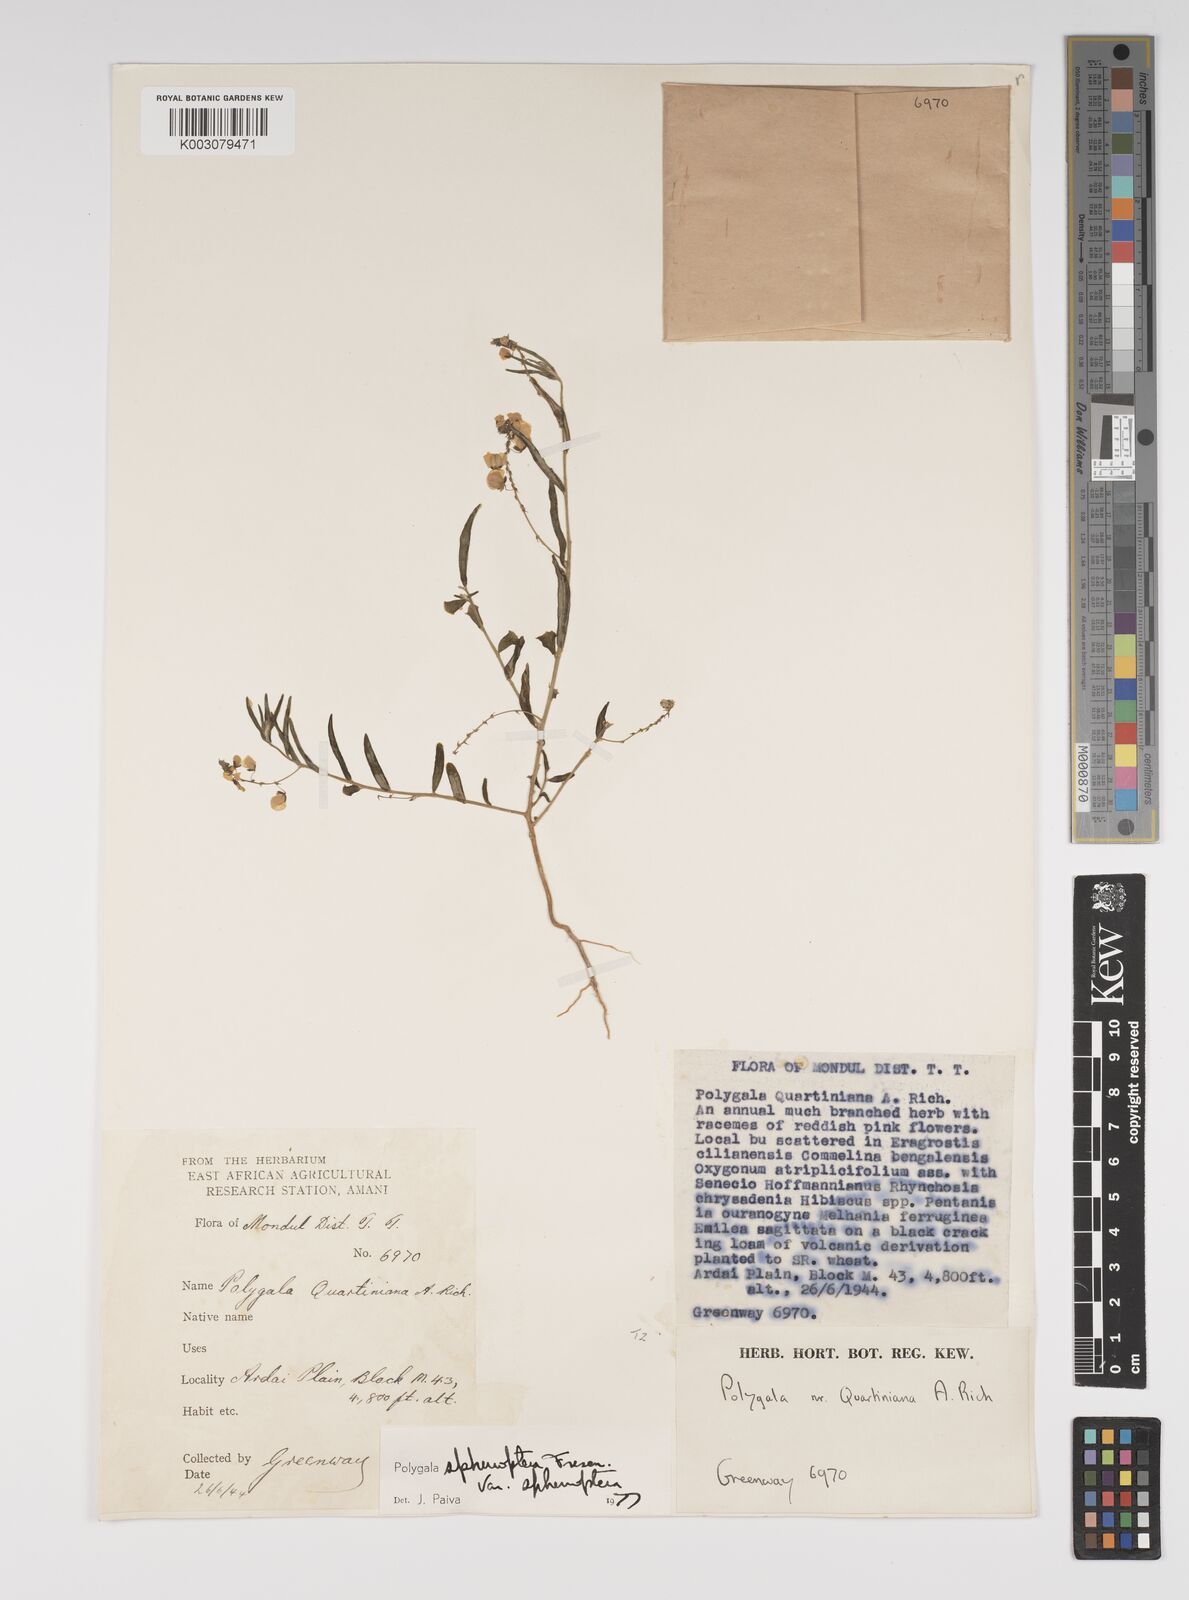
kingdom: Plantae
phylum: Tracheophyta
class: Magnoliopsida
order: Fabales
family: Polygalaceae
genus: Polygala
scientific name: Polygala sphenoptera
